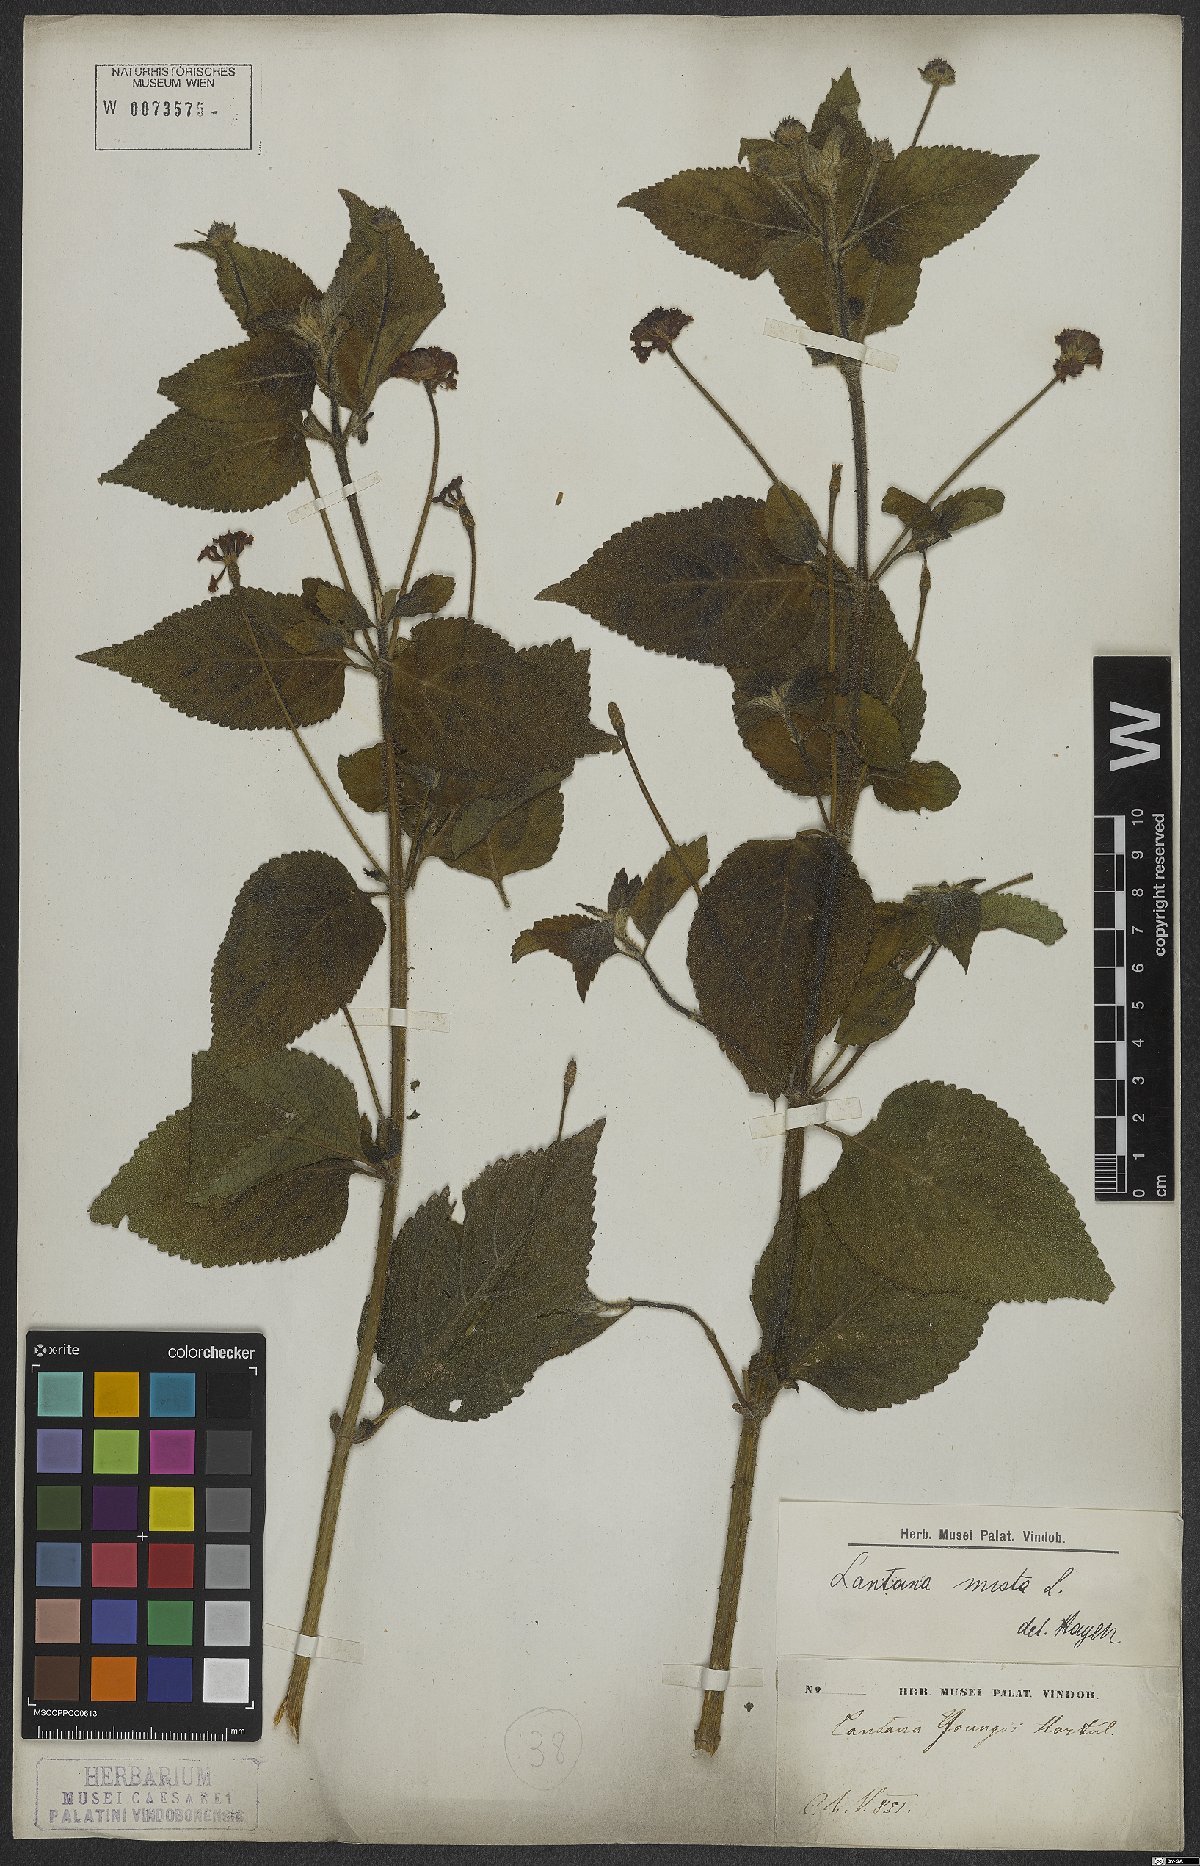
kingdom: Plantae
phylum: Tracheophyta
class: Magnoliopsida
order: Lamiales
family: Verbenaceae
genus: Lantana
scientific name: Lantana mista
